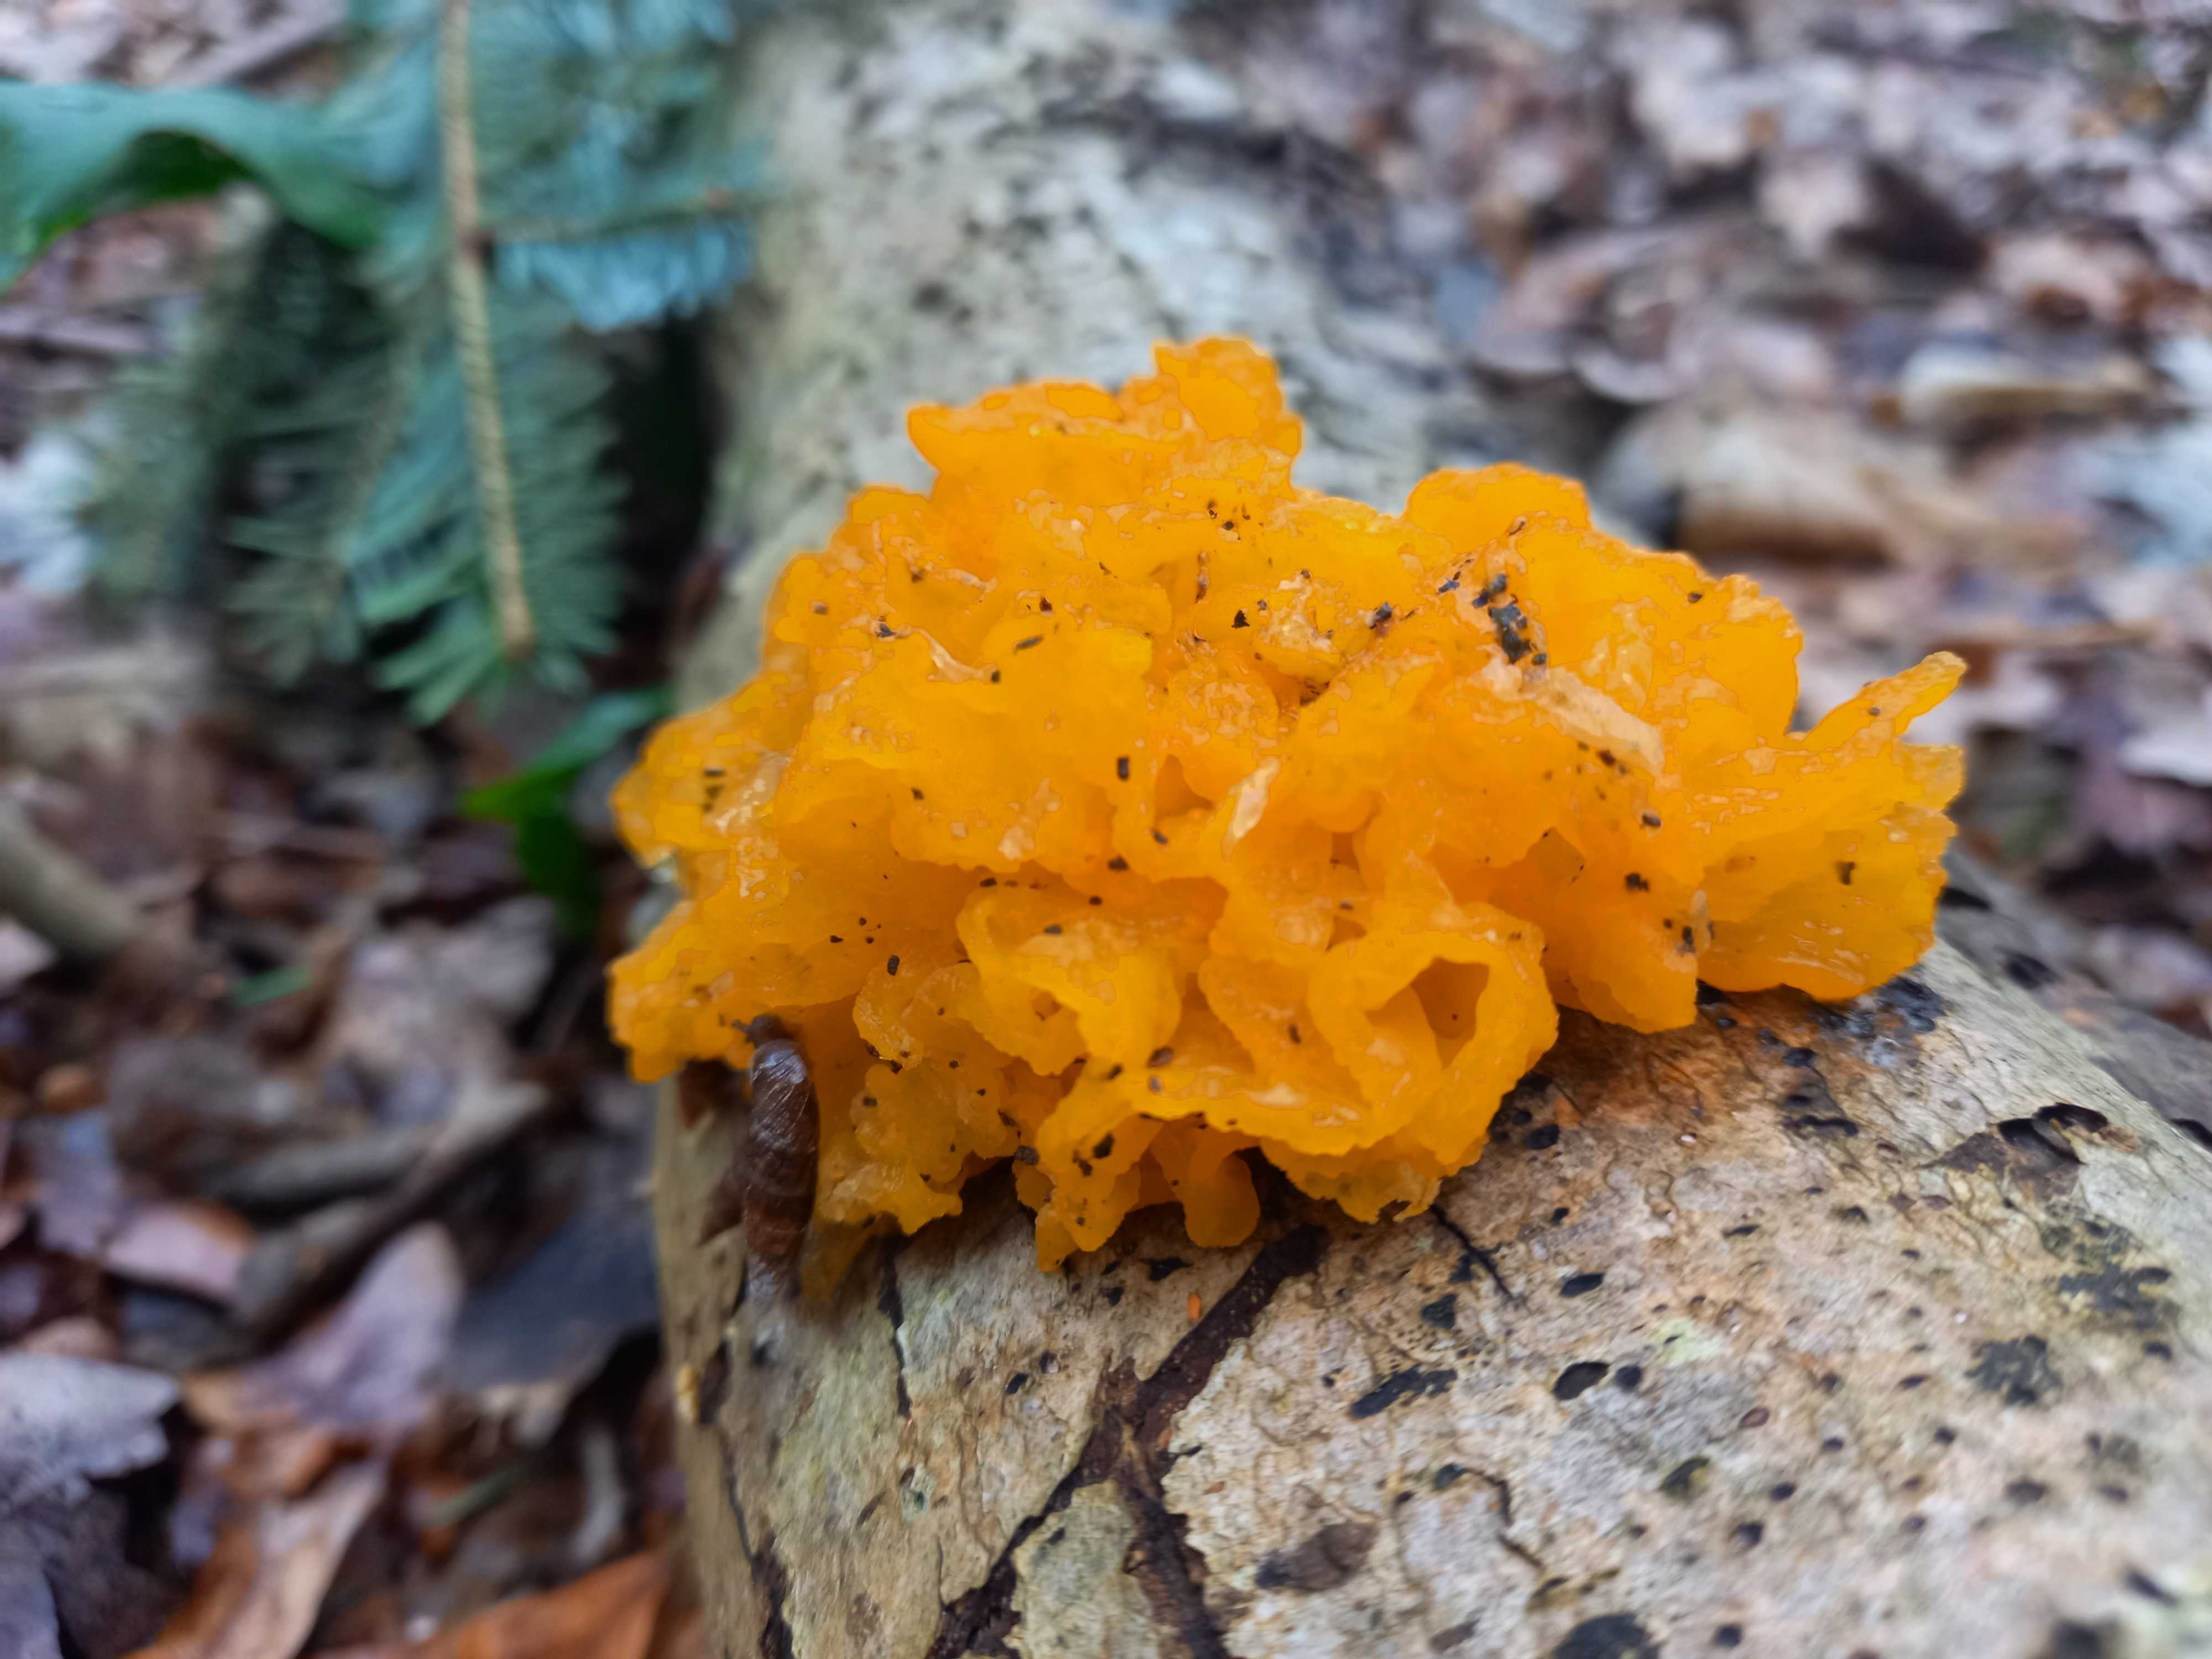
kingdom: Fungi
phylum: Basidiomycota
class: Tremellomycetes
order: Tremellales
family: Tremellaceae
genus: Tremella
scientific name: Tremella mesenterica
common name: gul bævresvamp
